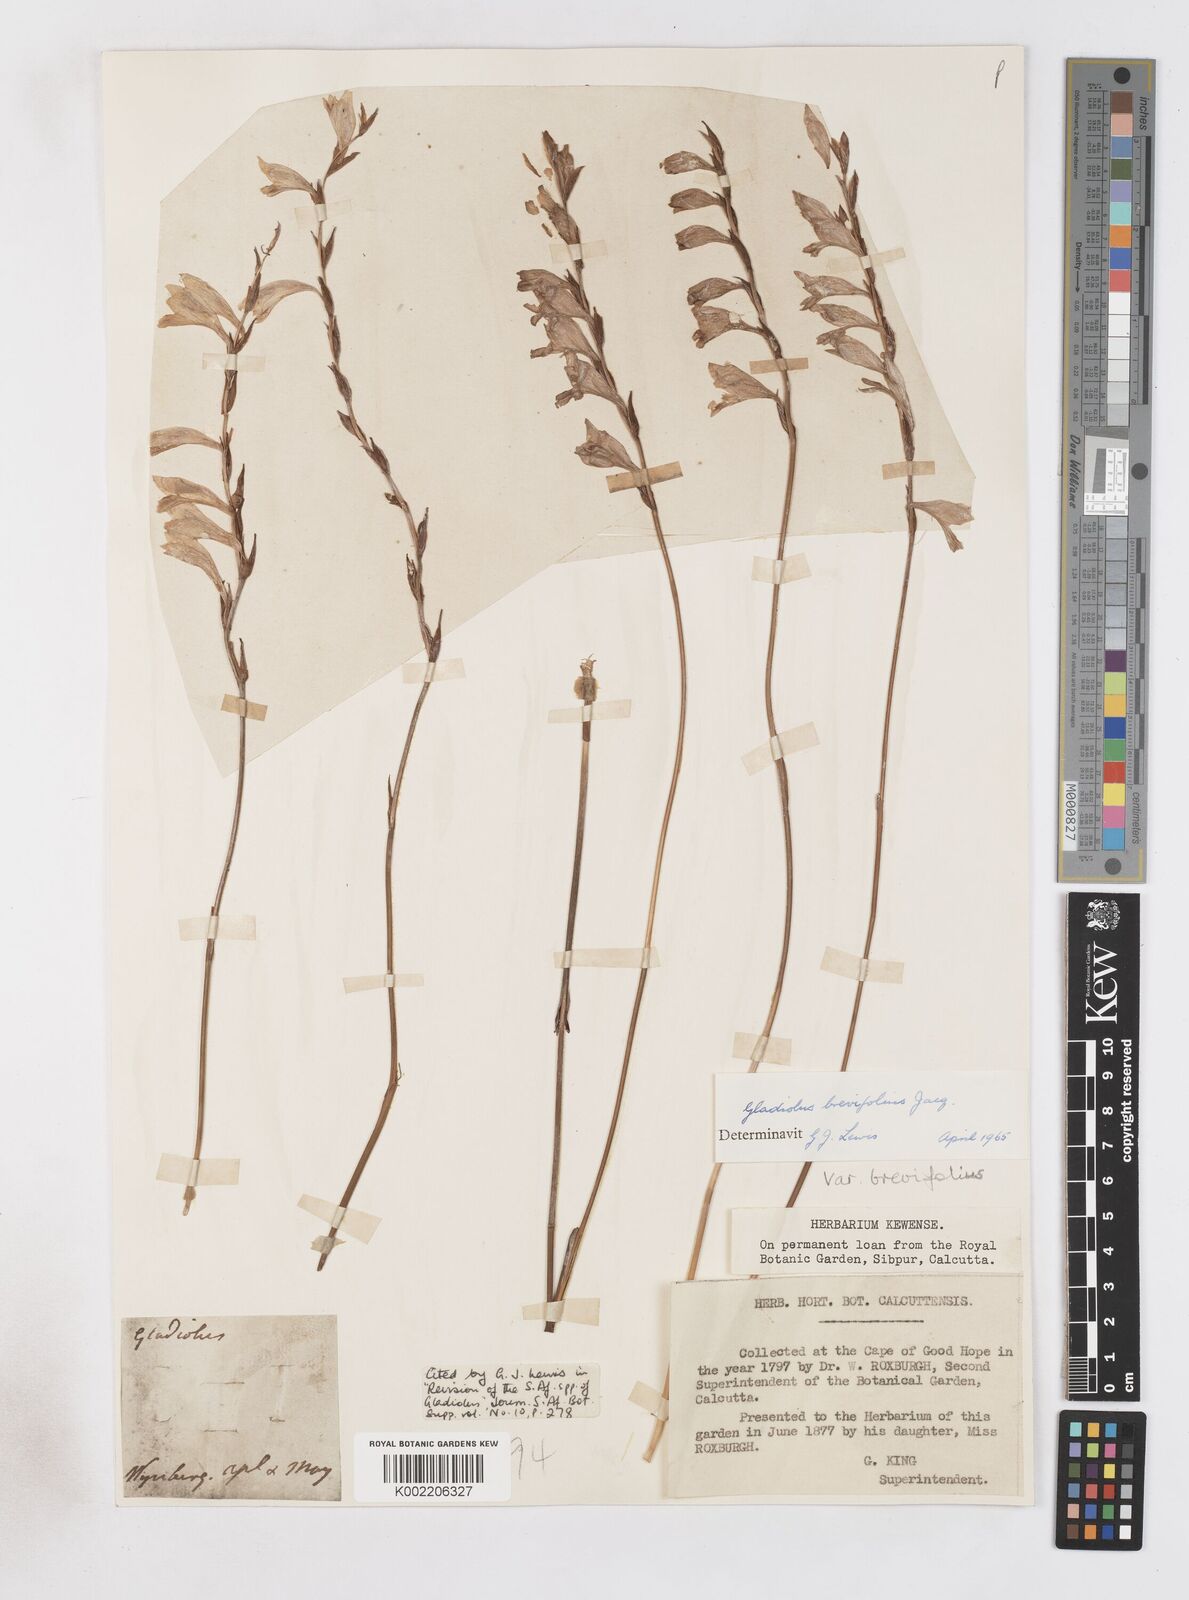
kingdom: Plantae
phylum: Tracheophyta
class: Liliopsida
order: Asparagales
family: Iridaceae
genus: Gladiolus
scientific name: Gladiolus brevifolius
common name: March pypie
